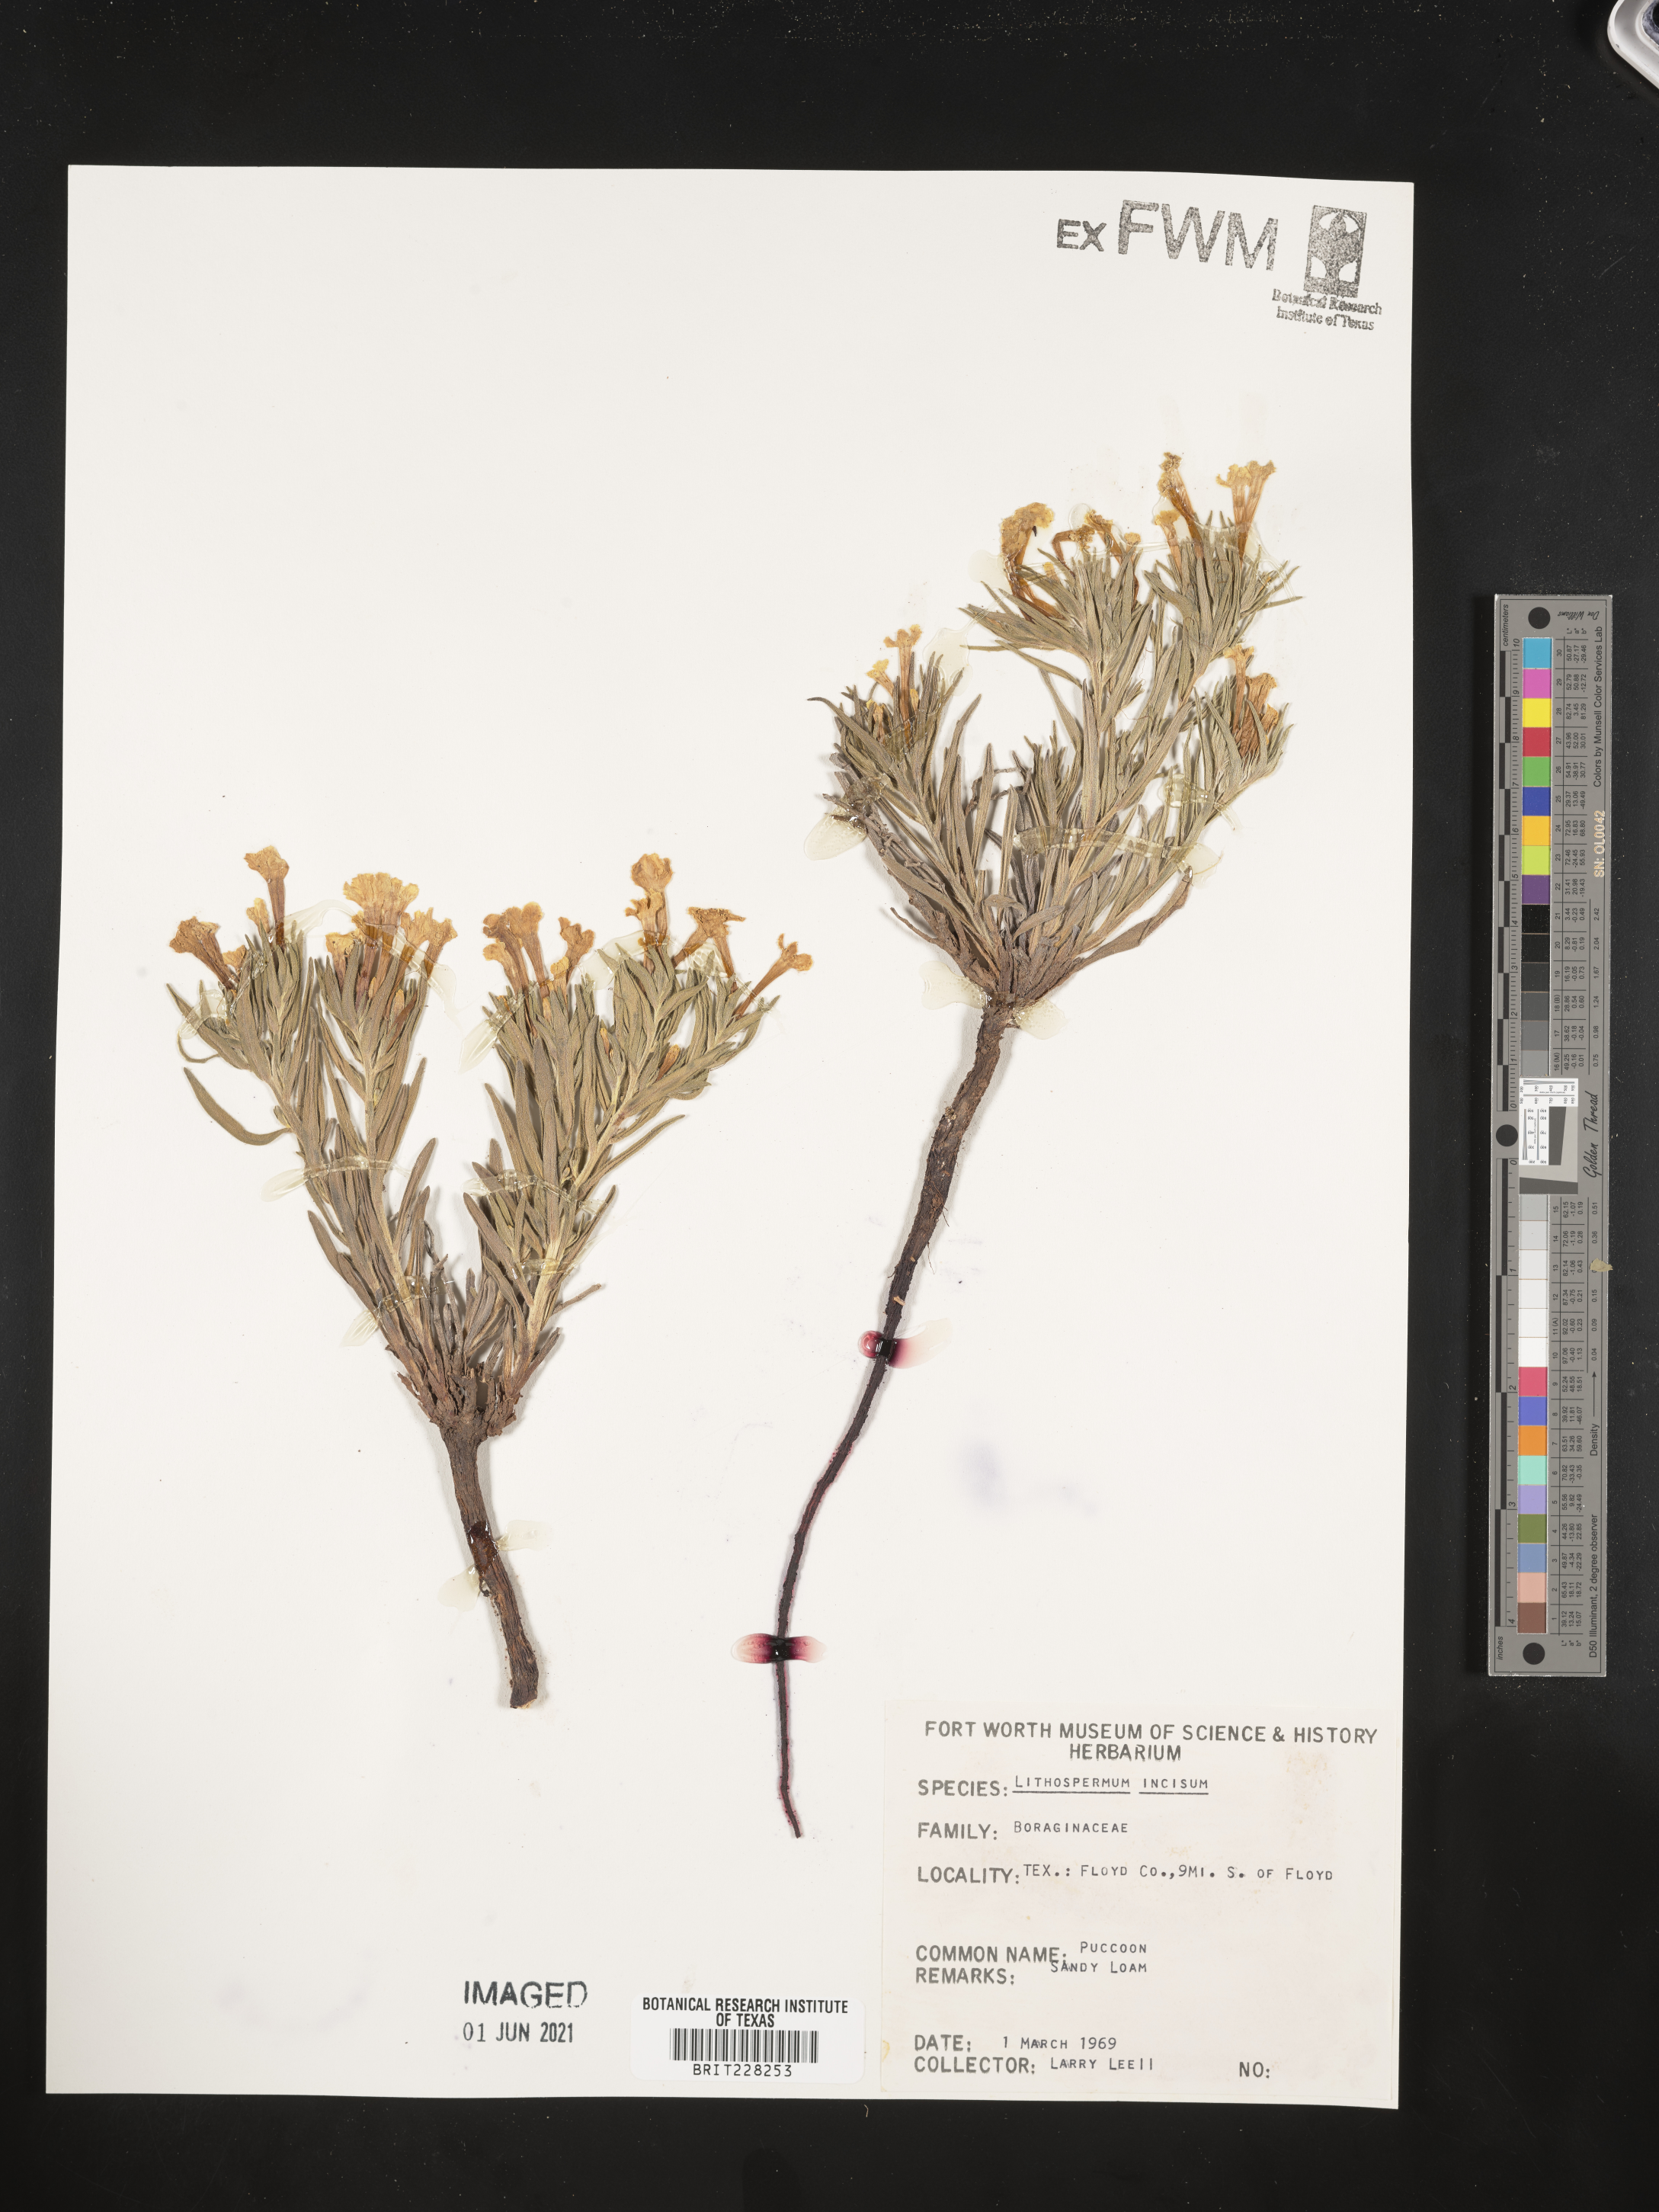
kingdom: Plantae
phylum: Tracheophyta
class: Magnoliopsida
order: Boraginales
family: Boraginaceae
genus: Lithospermum
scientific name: Lithospermum incisum
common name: Fringed gromwell
